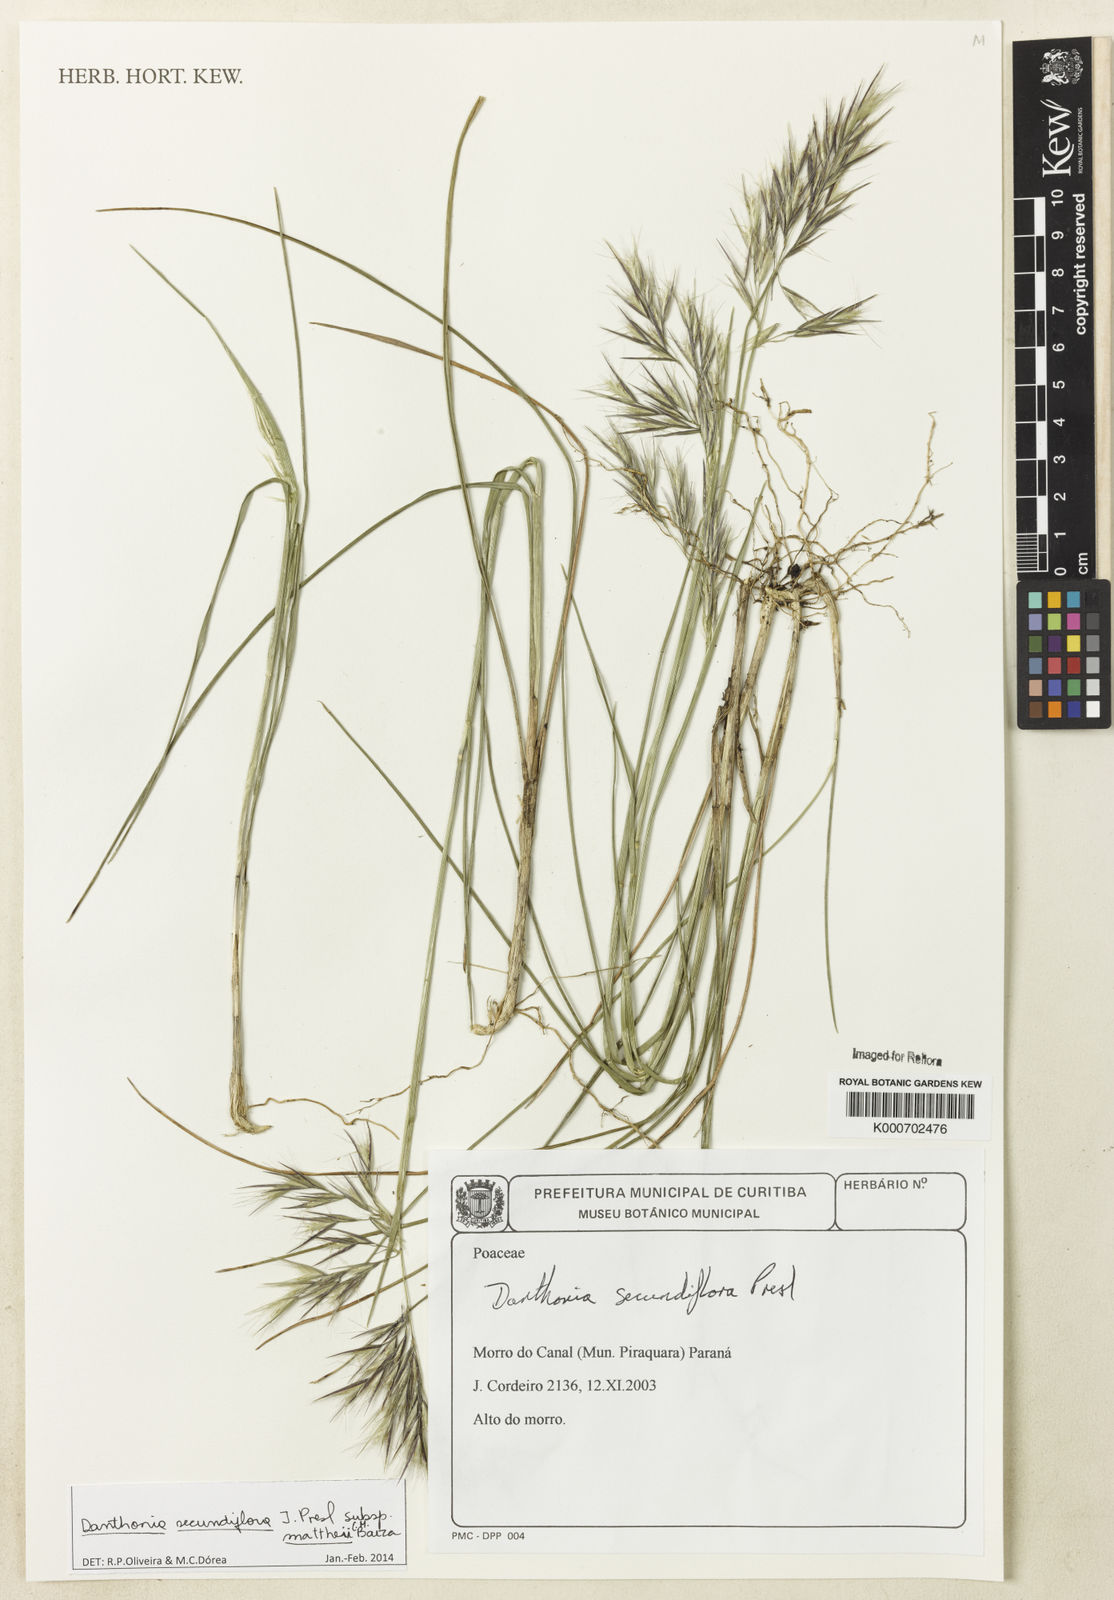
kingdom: Plantae
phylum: Tracheophyta
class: Liliopsida
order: Poales
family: Poaceae
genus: Danthonia
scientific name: Danthonia secundiflora
